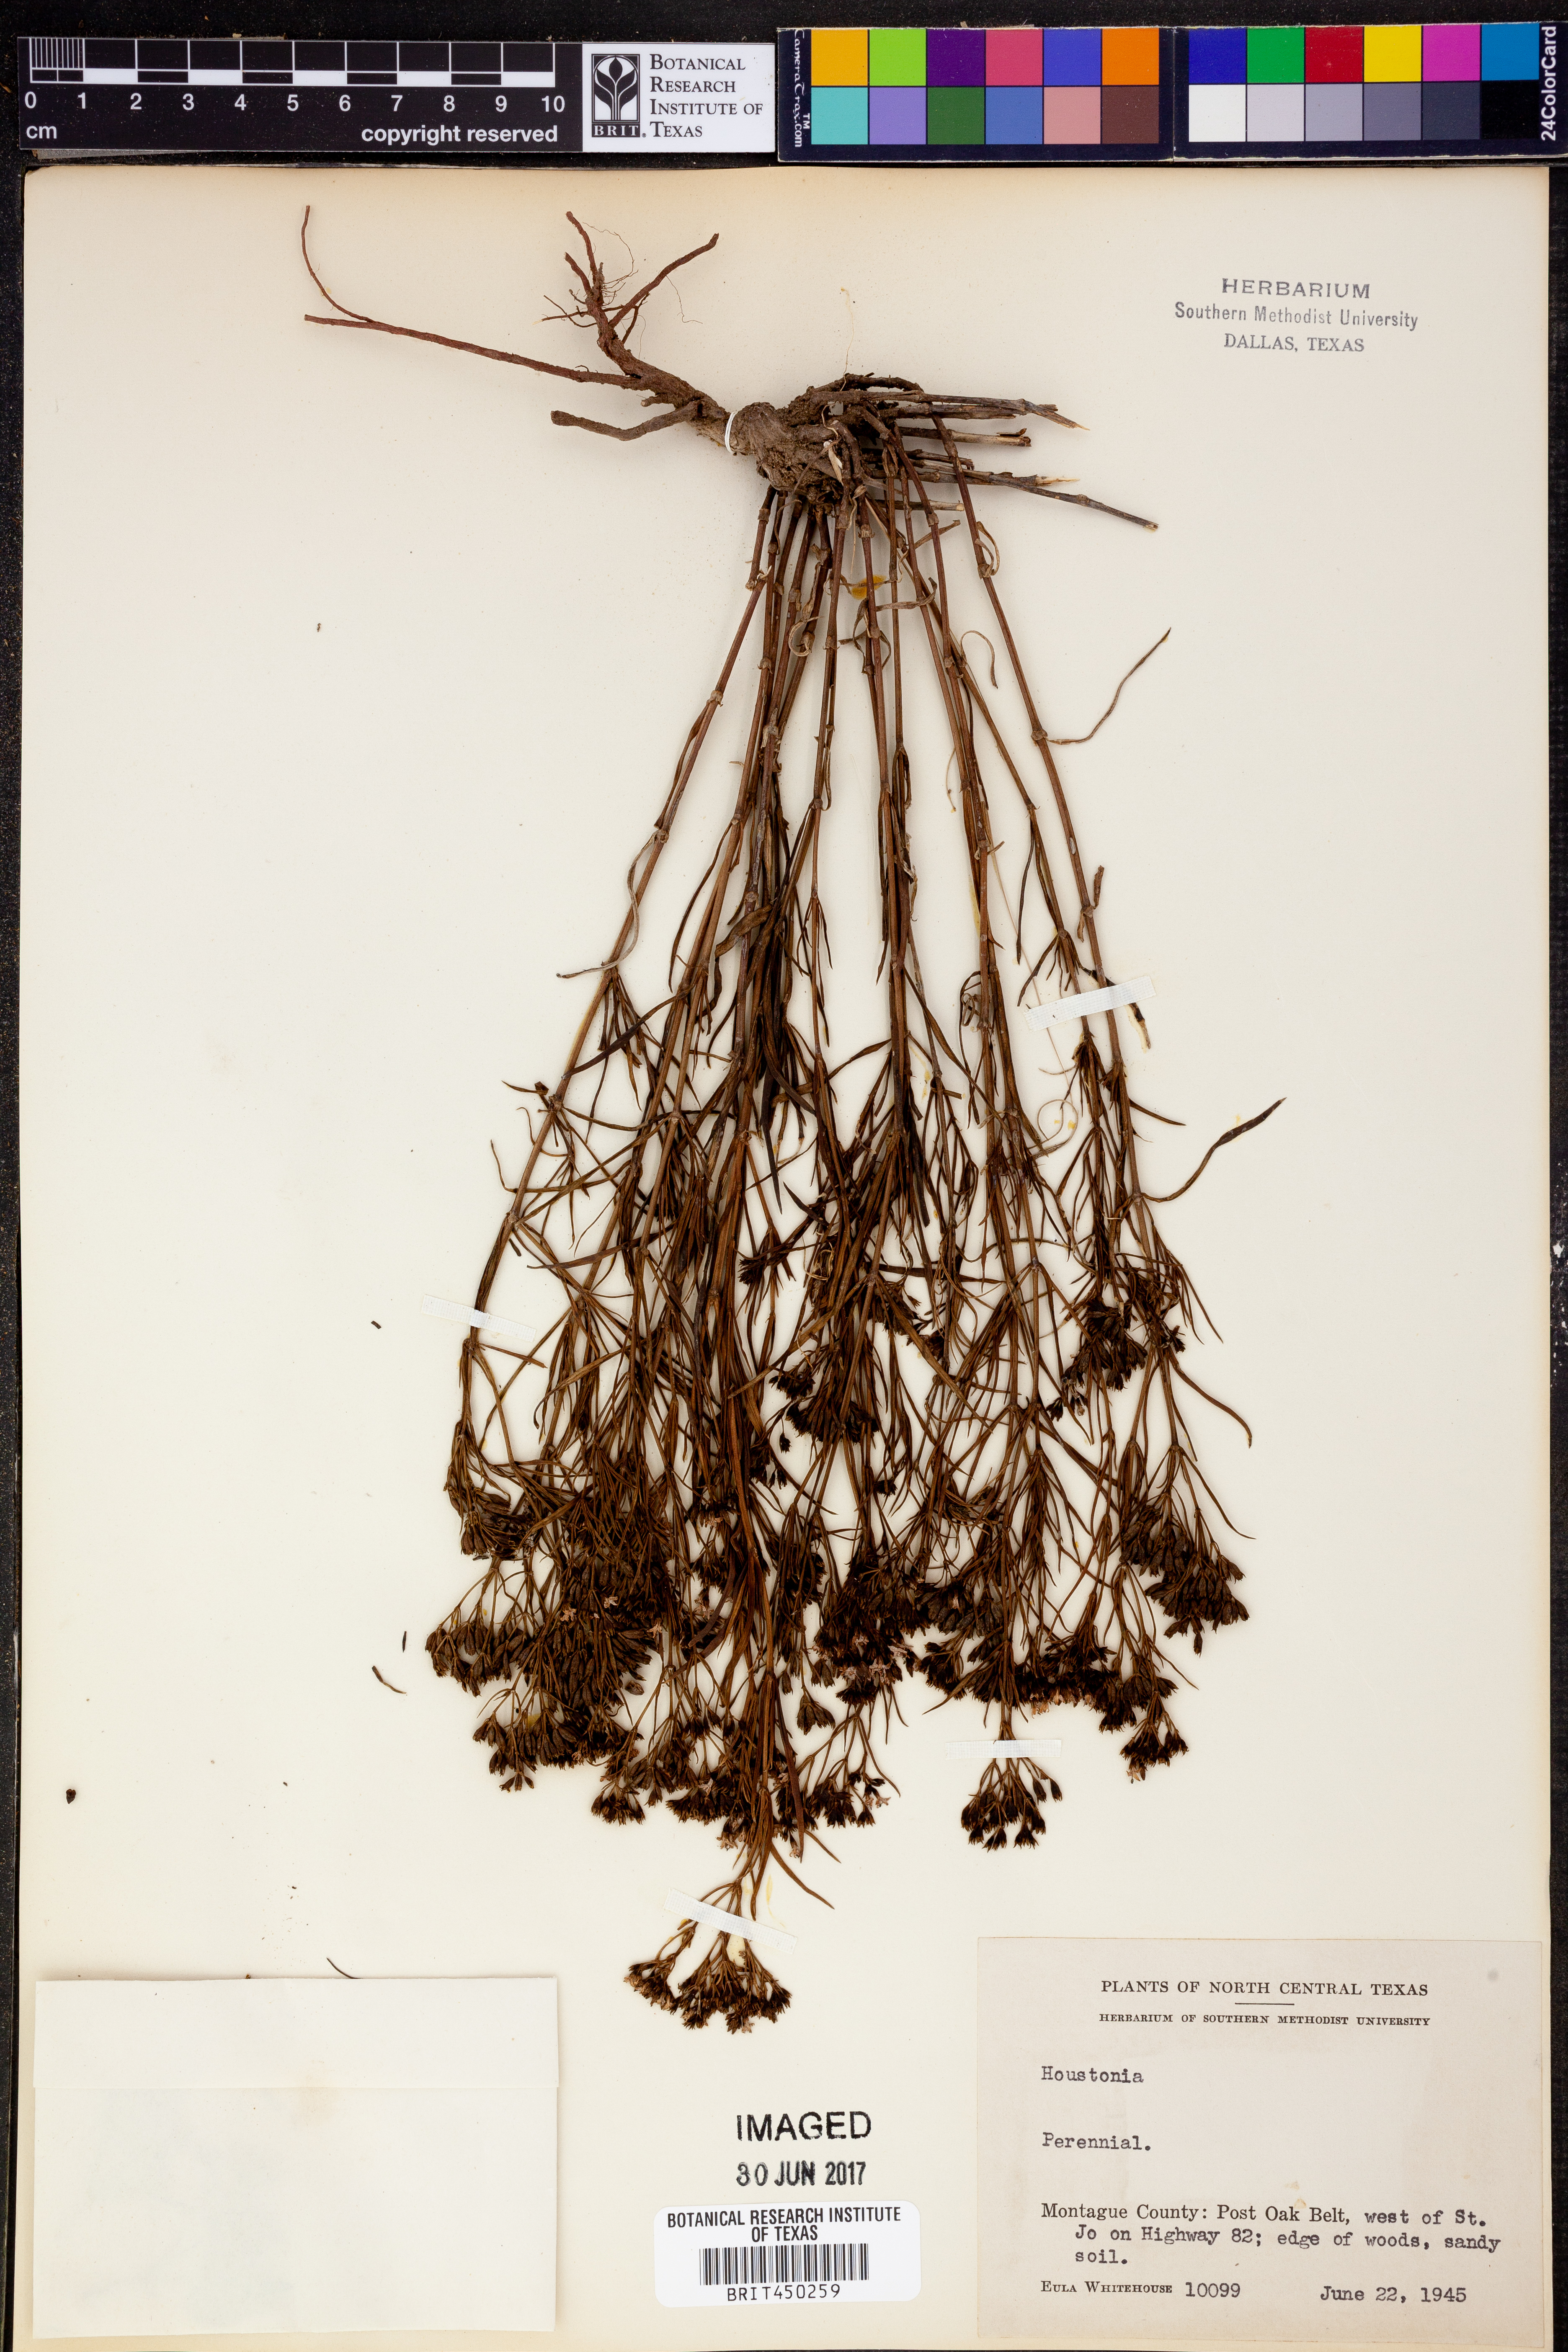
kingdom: Plantae
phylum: Tracheophyta
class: Magnoliopsida
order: Gentianales
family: Rubiaceae
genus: Houstonia
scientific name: Houstonia
